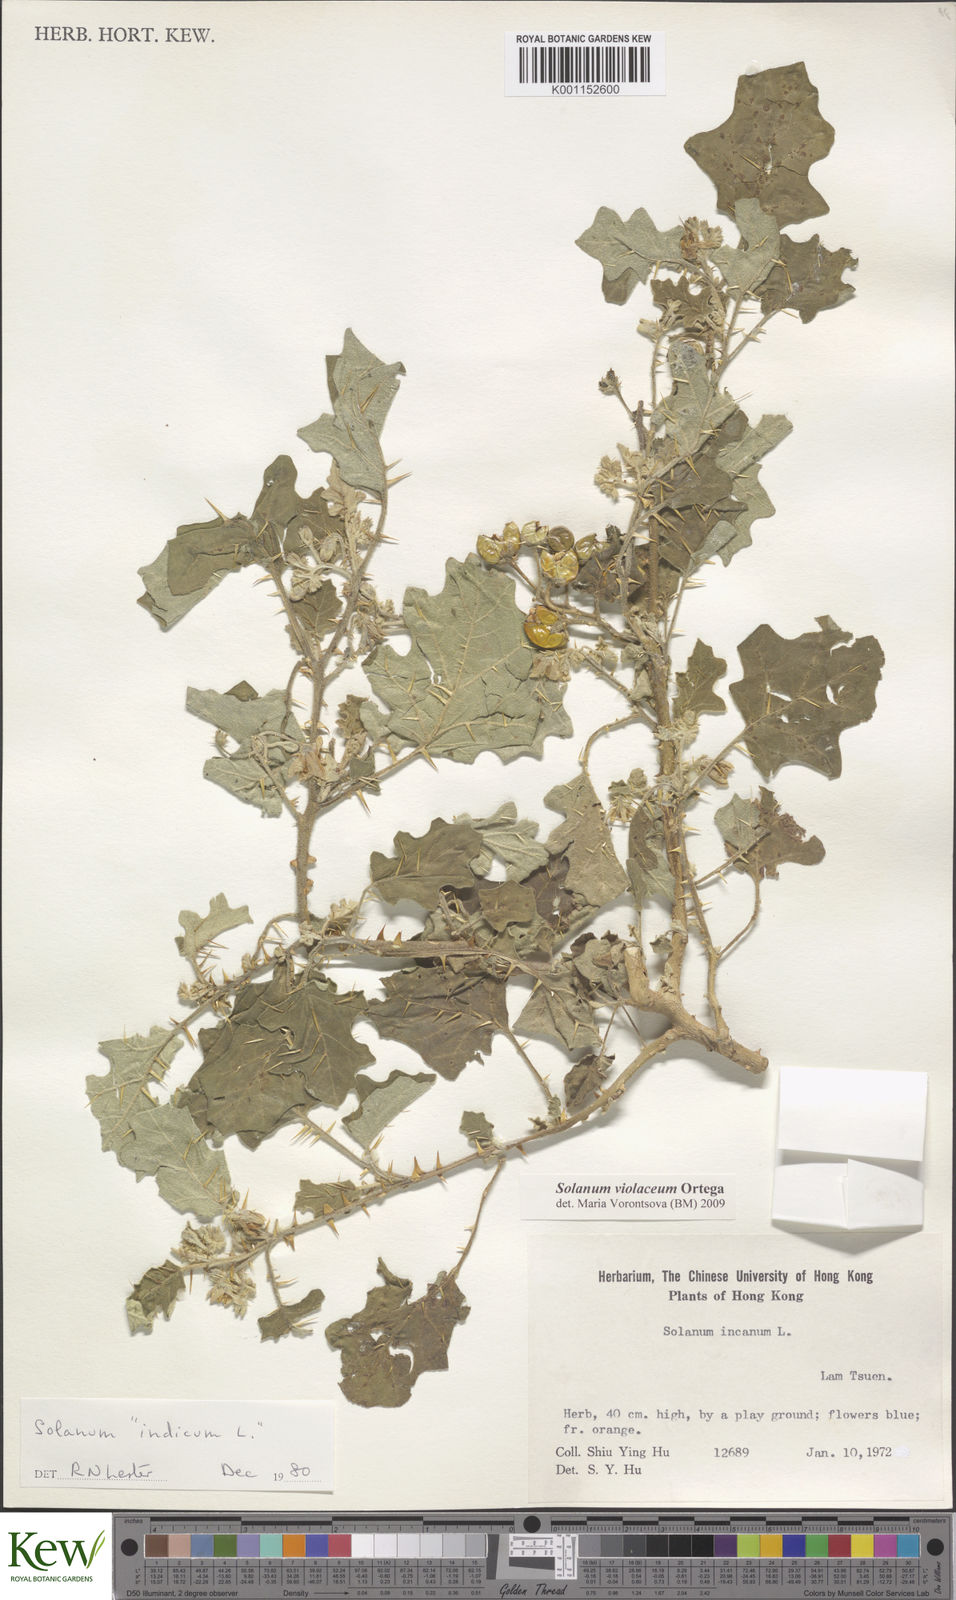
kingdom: Plantae
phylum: Tracheophyta
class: Magnoliopsida
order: Solanales
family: Solanaceae
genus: Solanum
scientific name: Solanum violaceum
